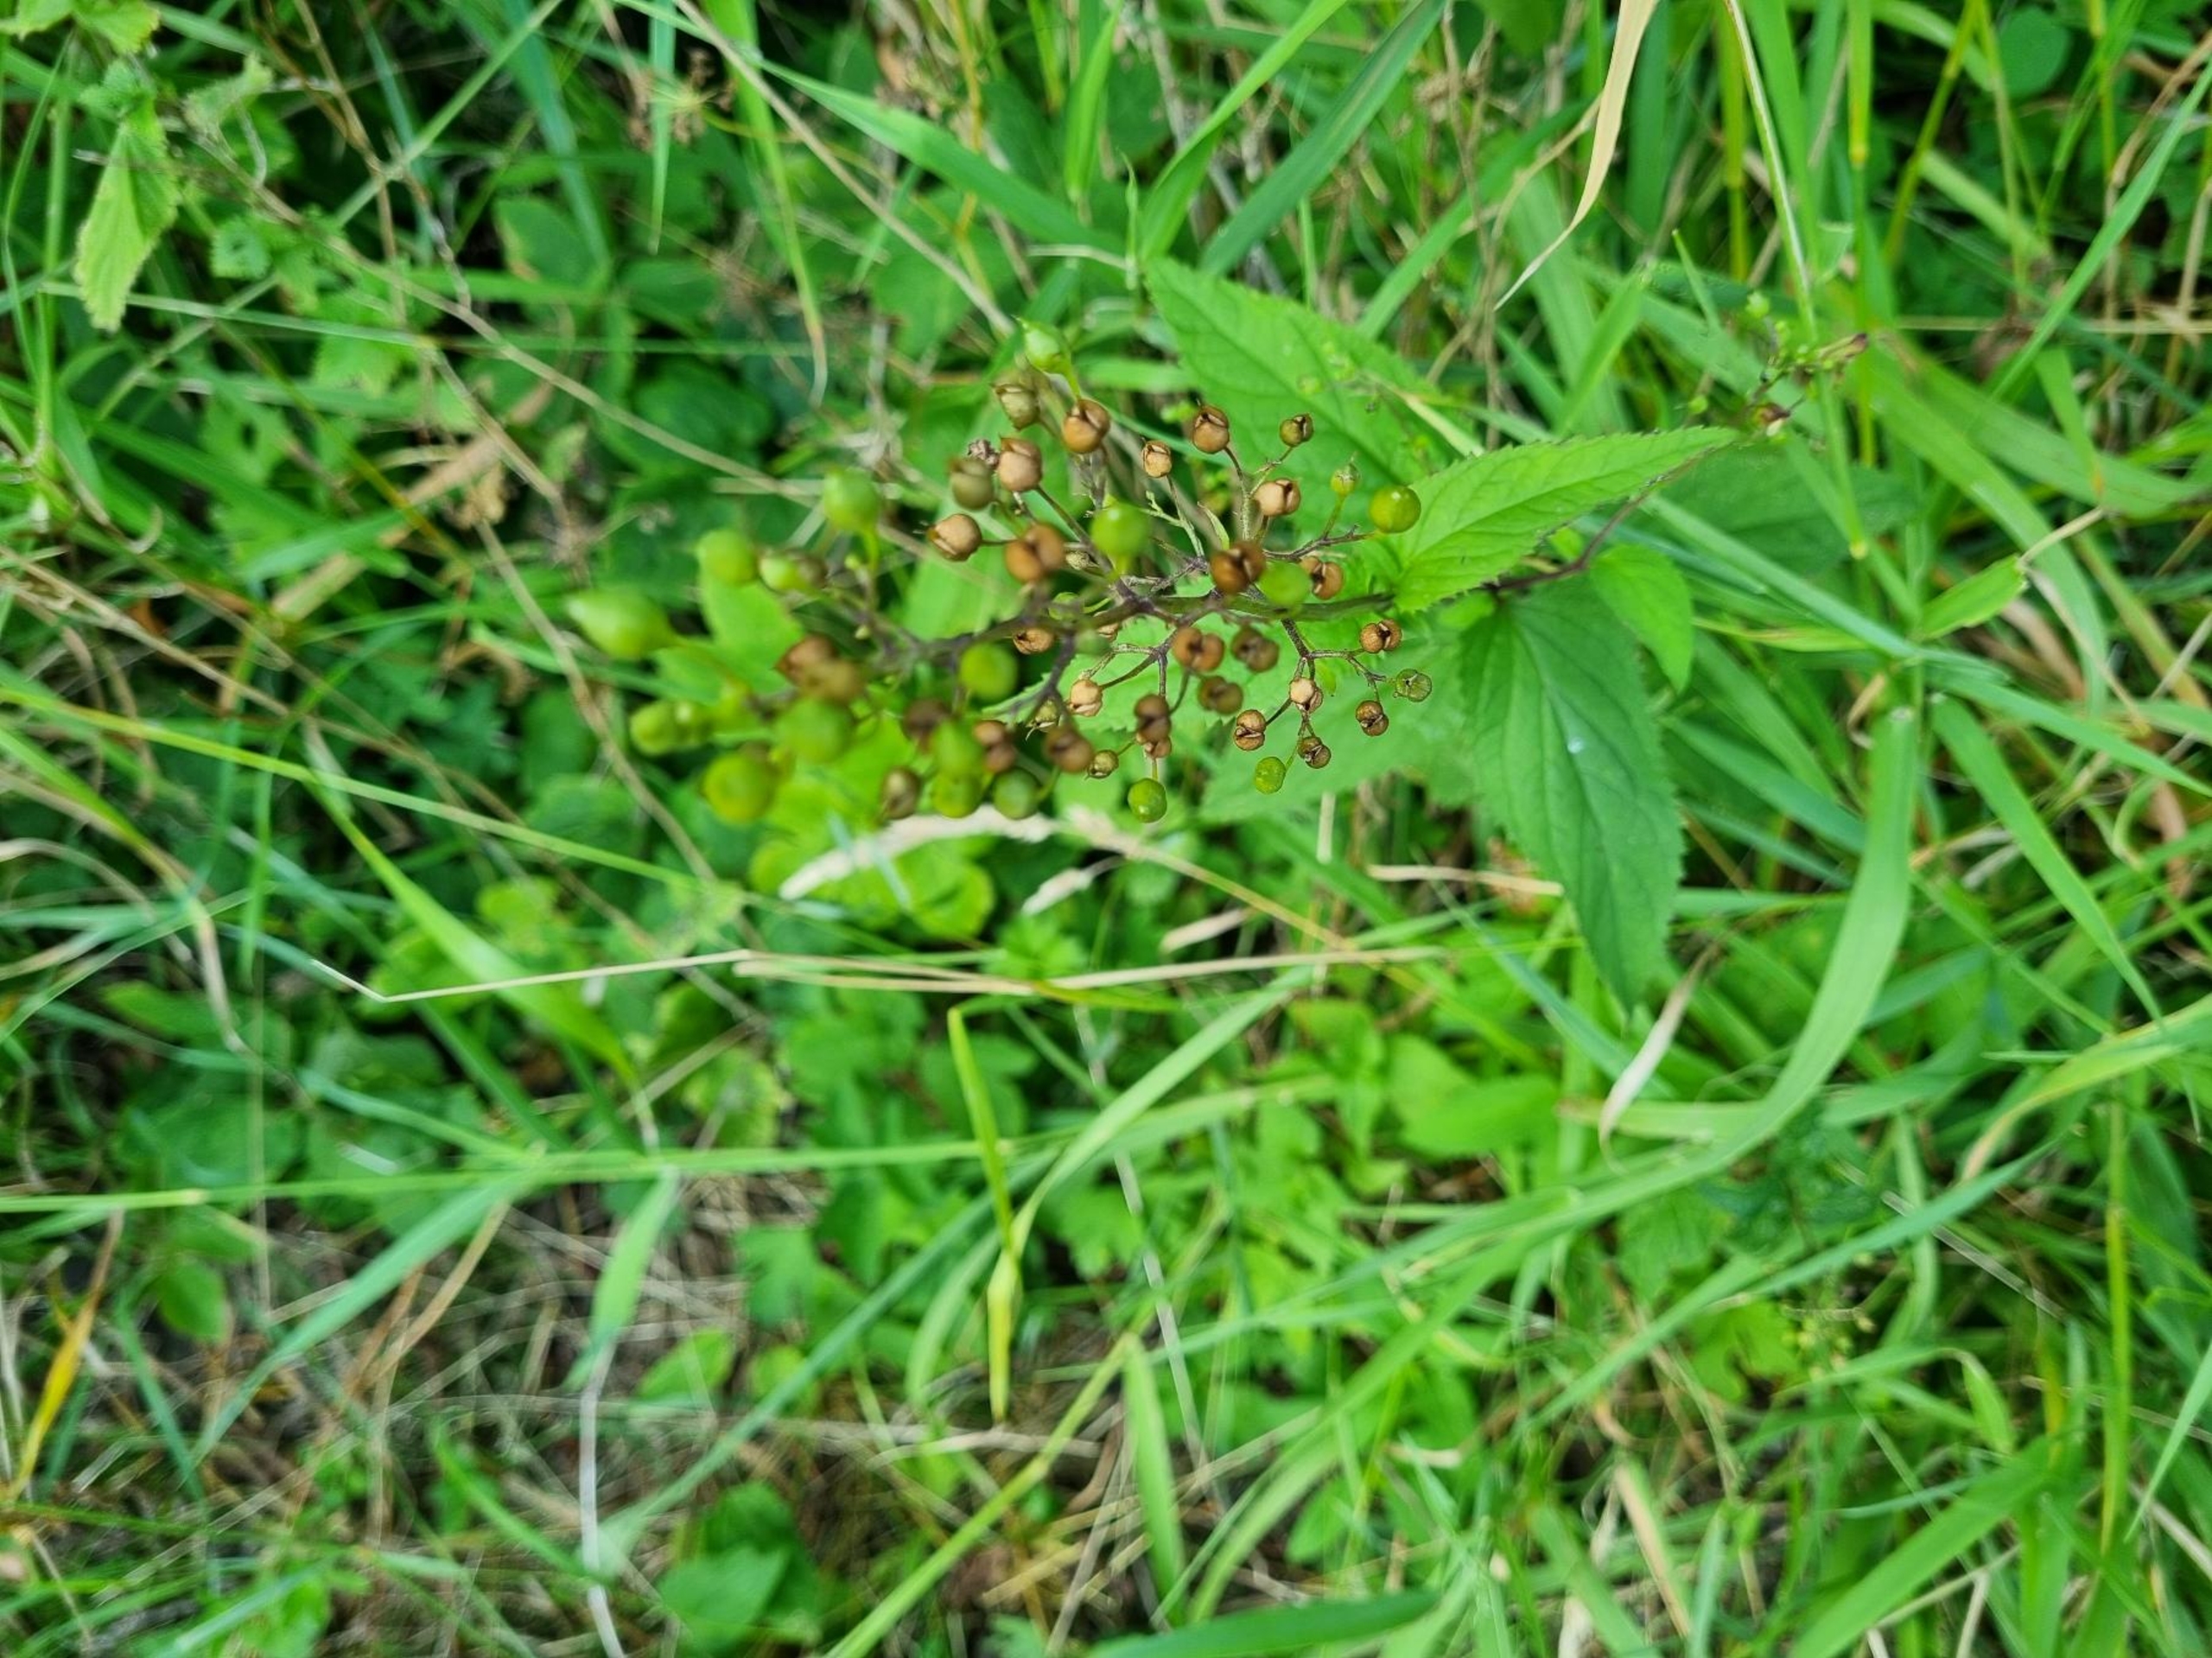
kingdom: Plantae
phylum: Tracheophyta
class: Magnoliopsida
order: Lamiales
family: Scrophulariaceae
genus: Scrophularia
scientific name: Scrophularia nodosa
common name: Knoldet brunrod
